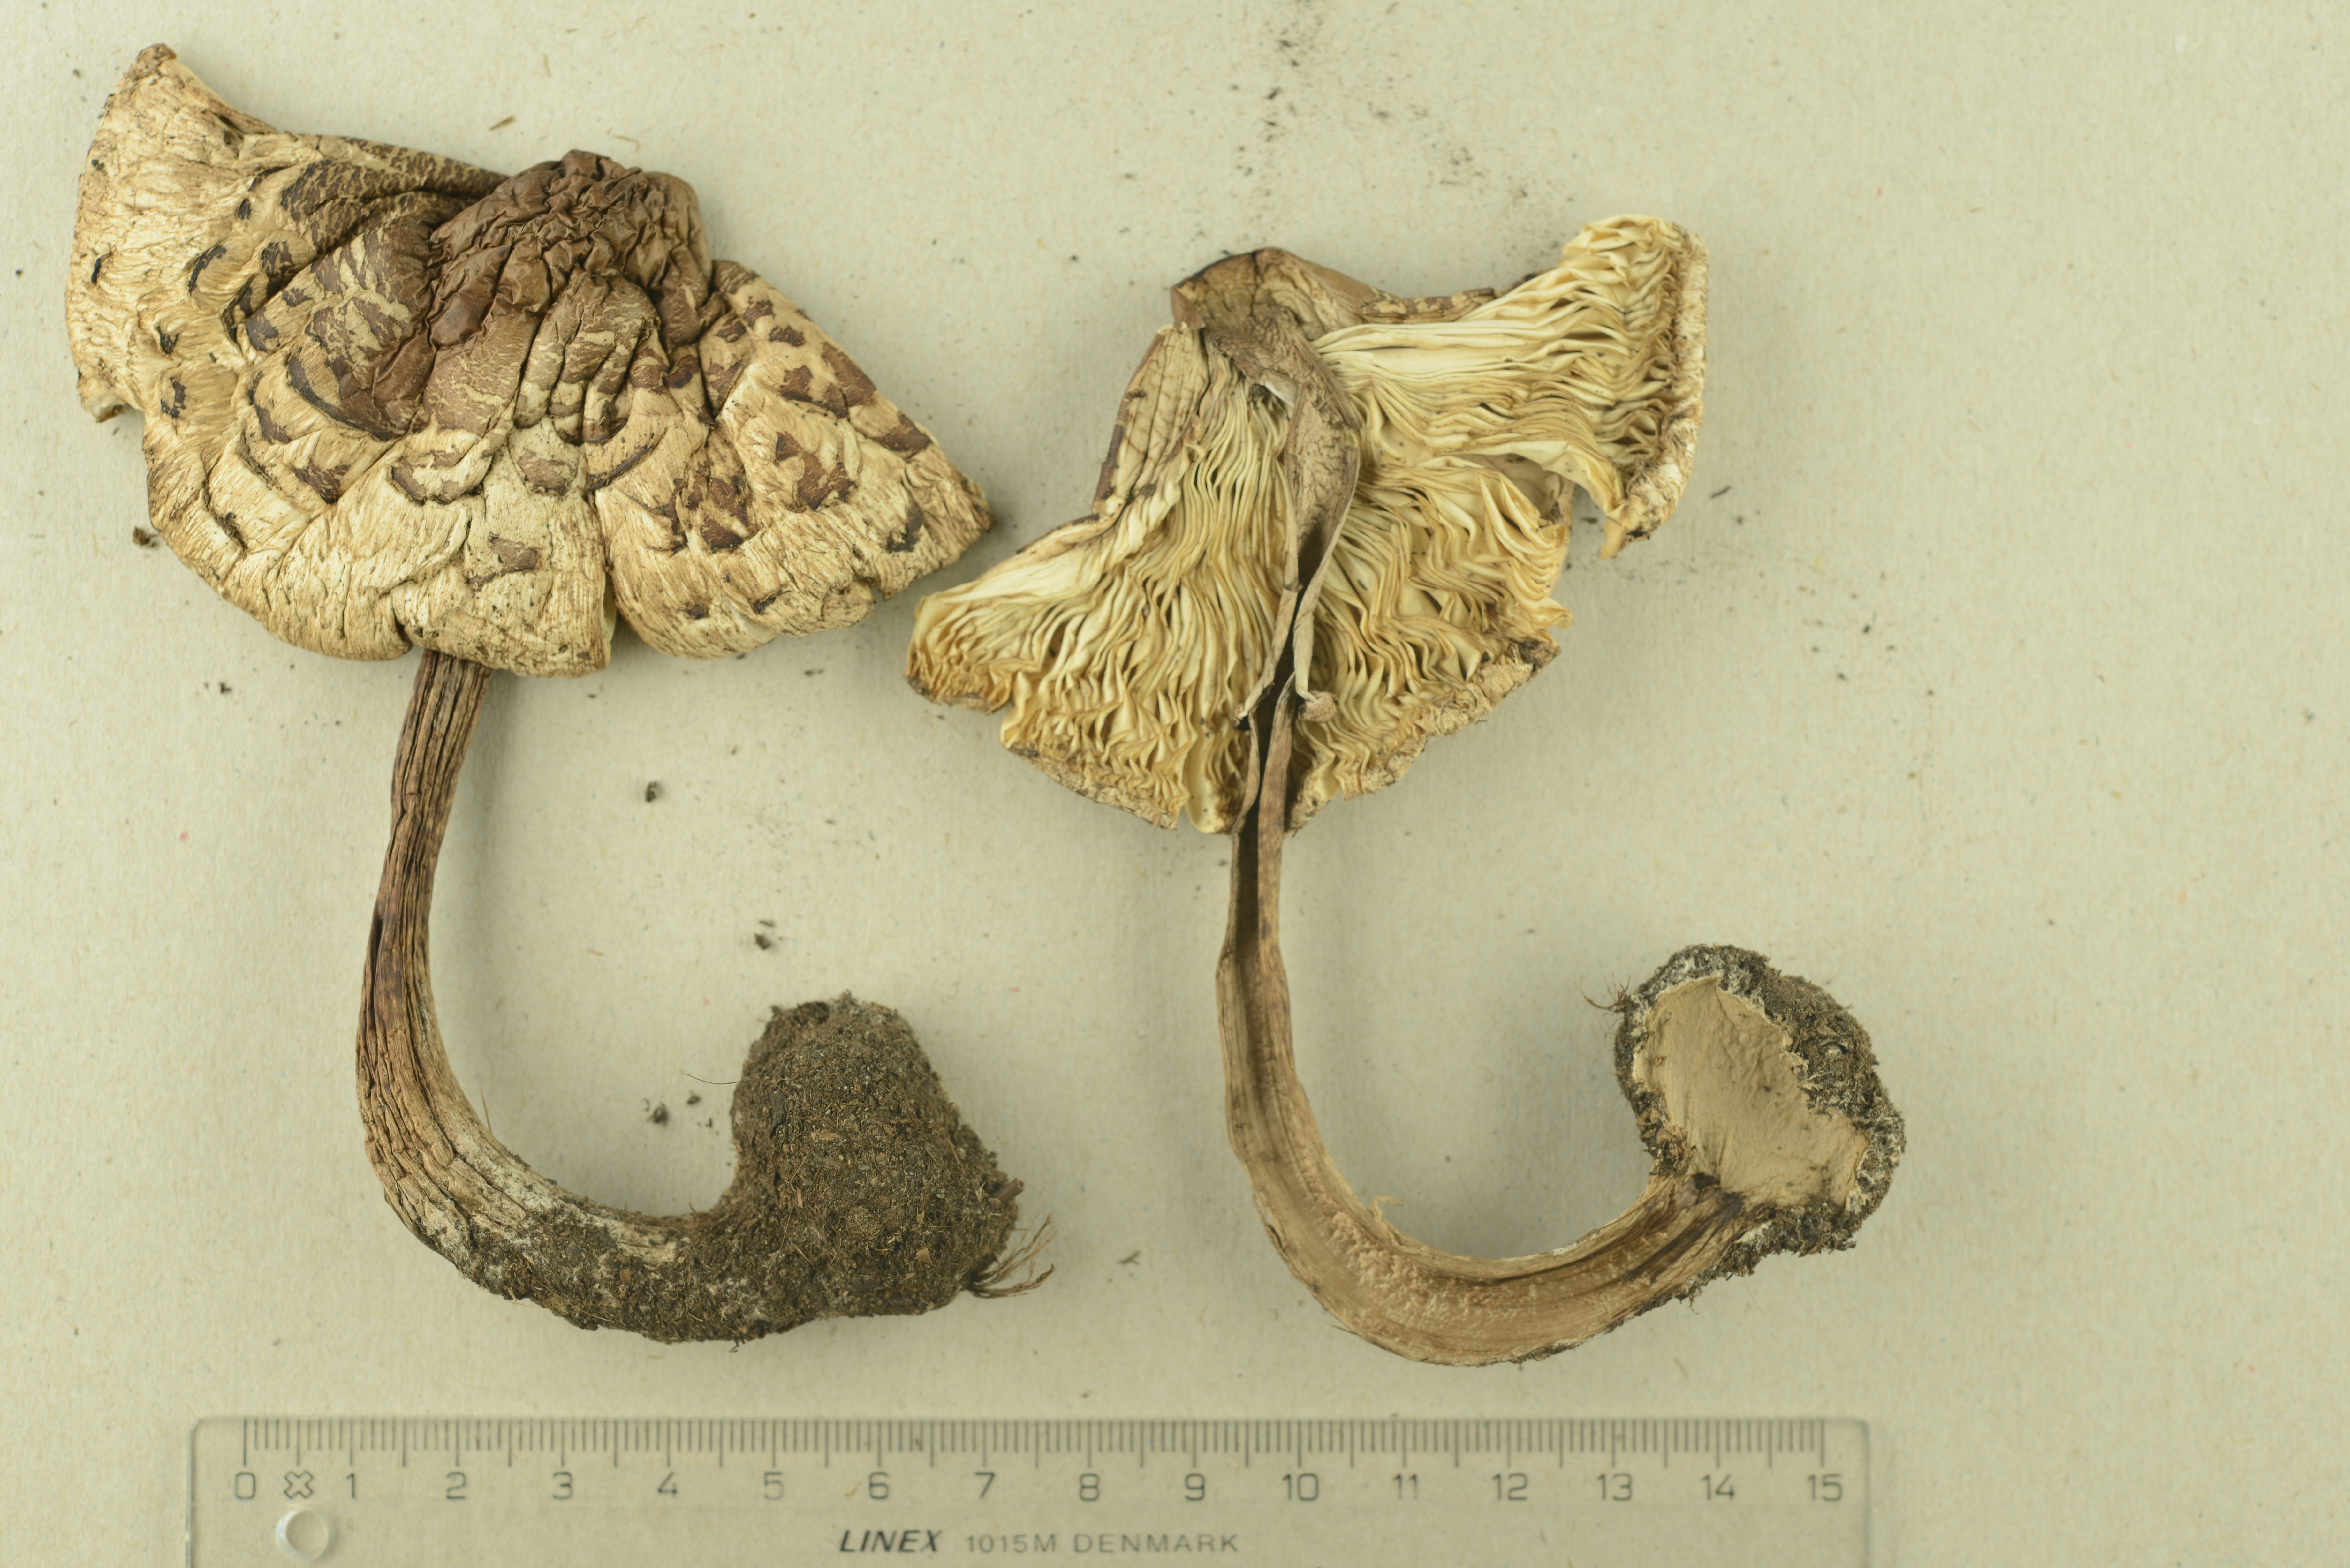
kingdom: Fungi
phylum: Basidiomycota
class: Agaricomycetes
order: Agaricales
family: Agaricaceae
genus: Chlorophyllum
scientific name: Chlorophyllum brunneum
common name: Brown parasol
